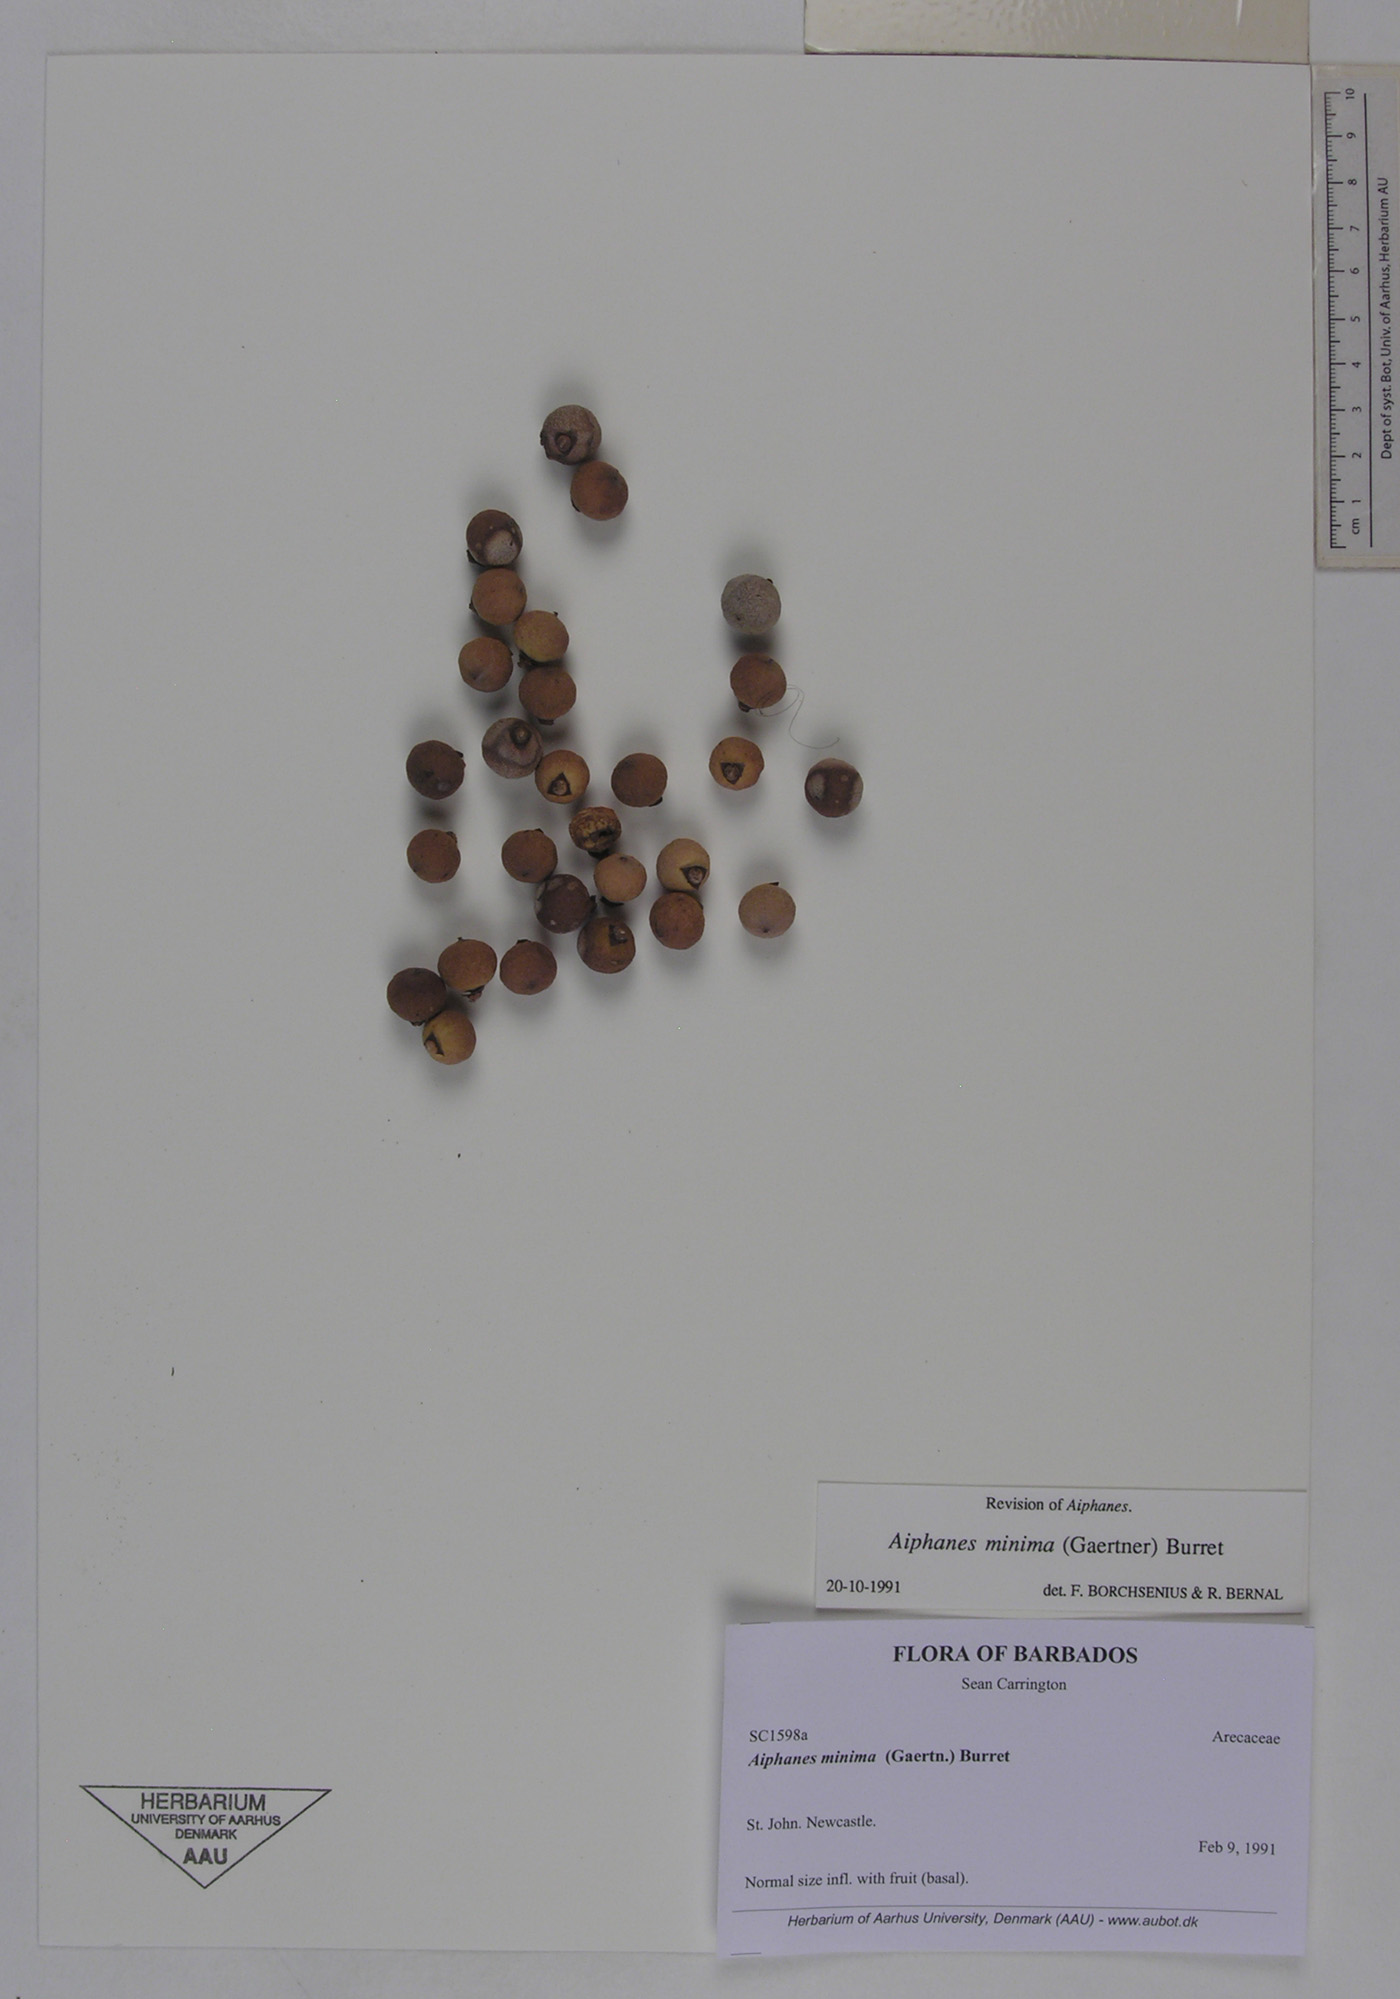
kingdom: Plantae
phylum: Tracheophyta
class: Liliopsida
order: Arecales
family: Arecaceae
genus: Aiphanes
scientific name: Aiphanes minima
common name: Grigri
